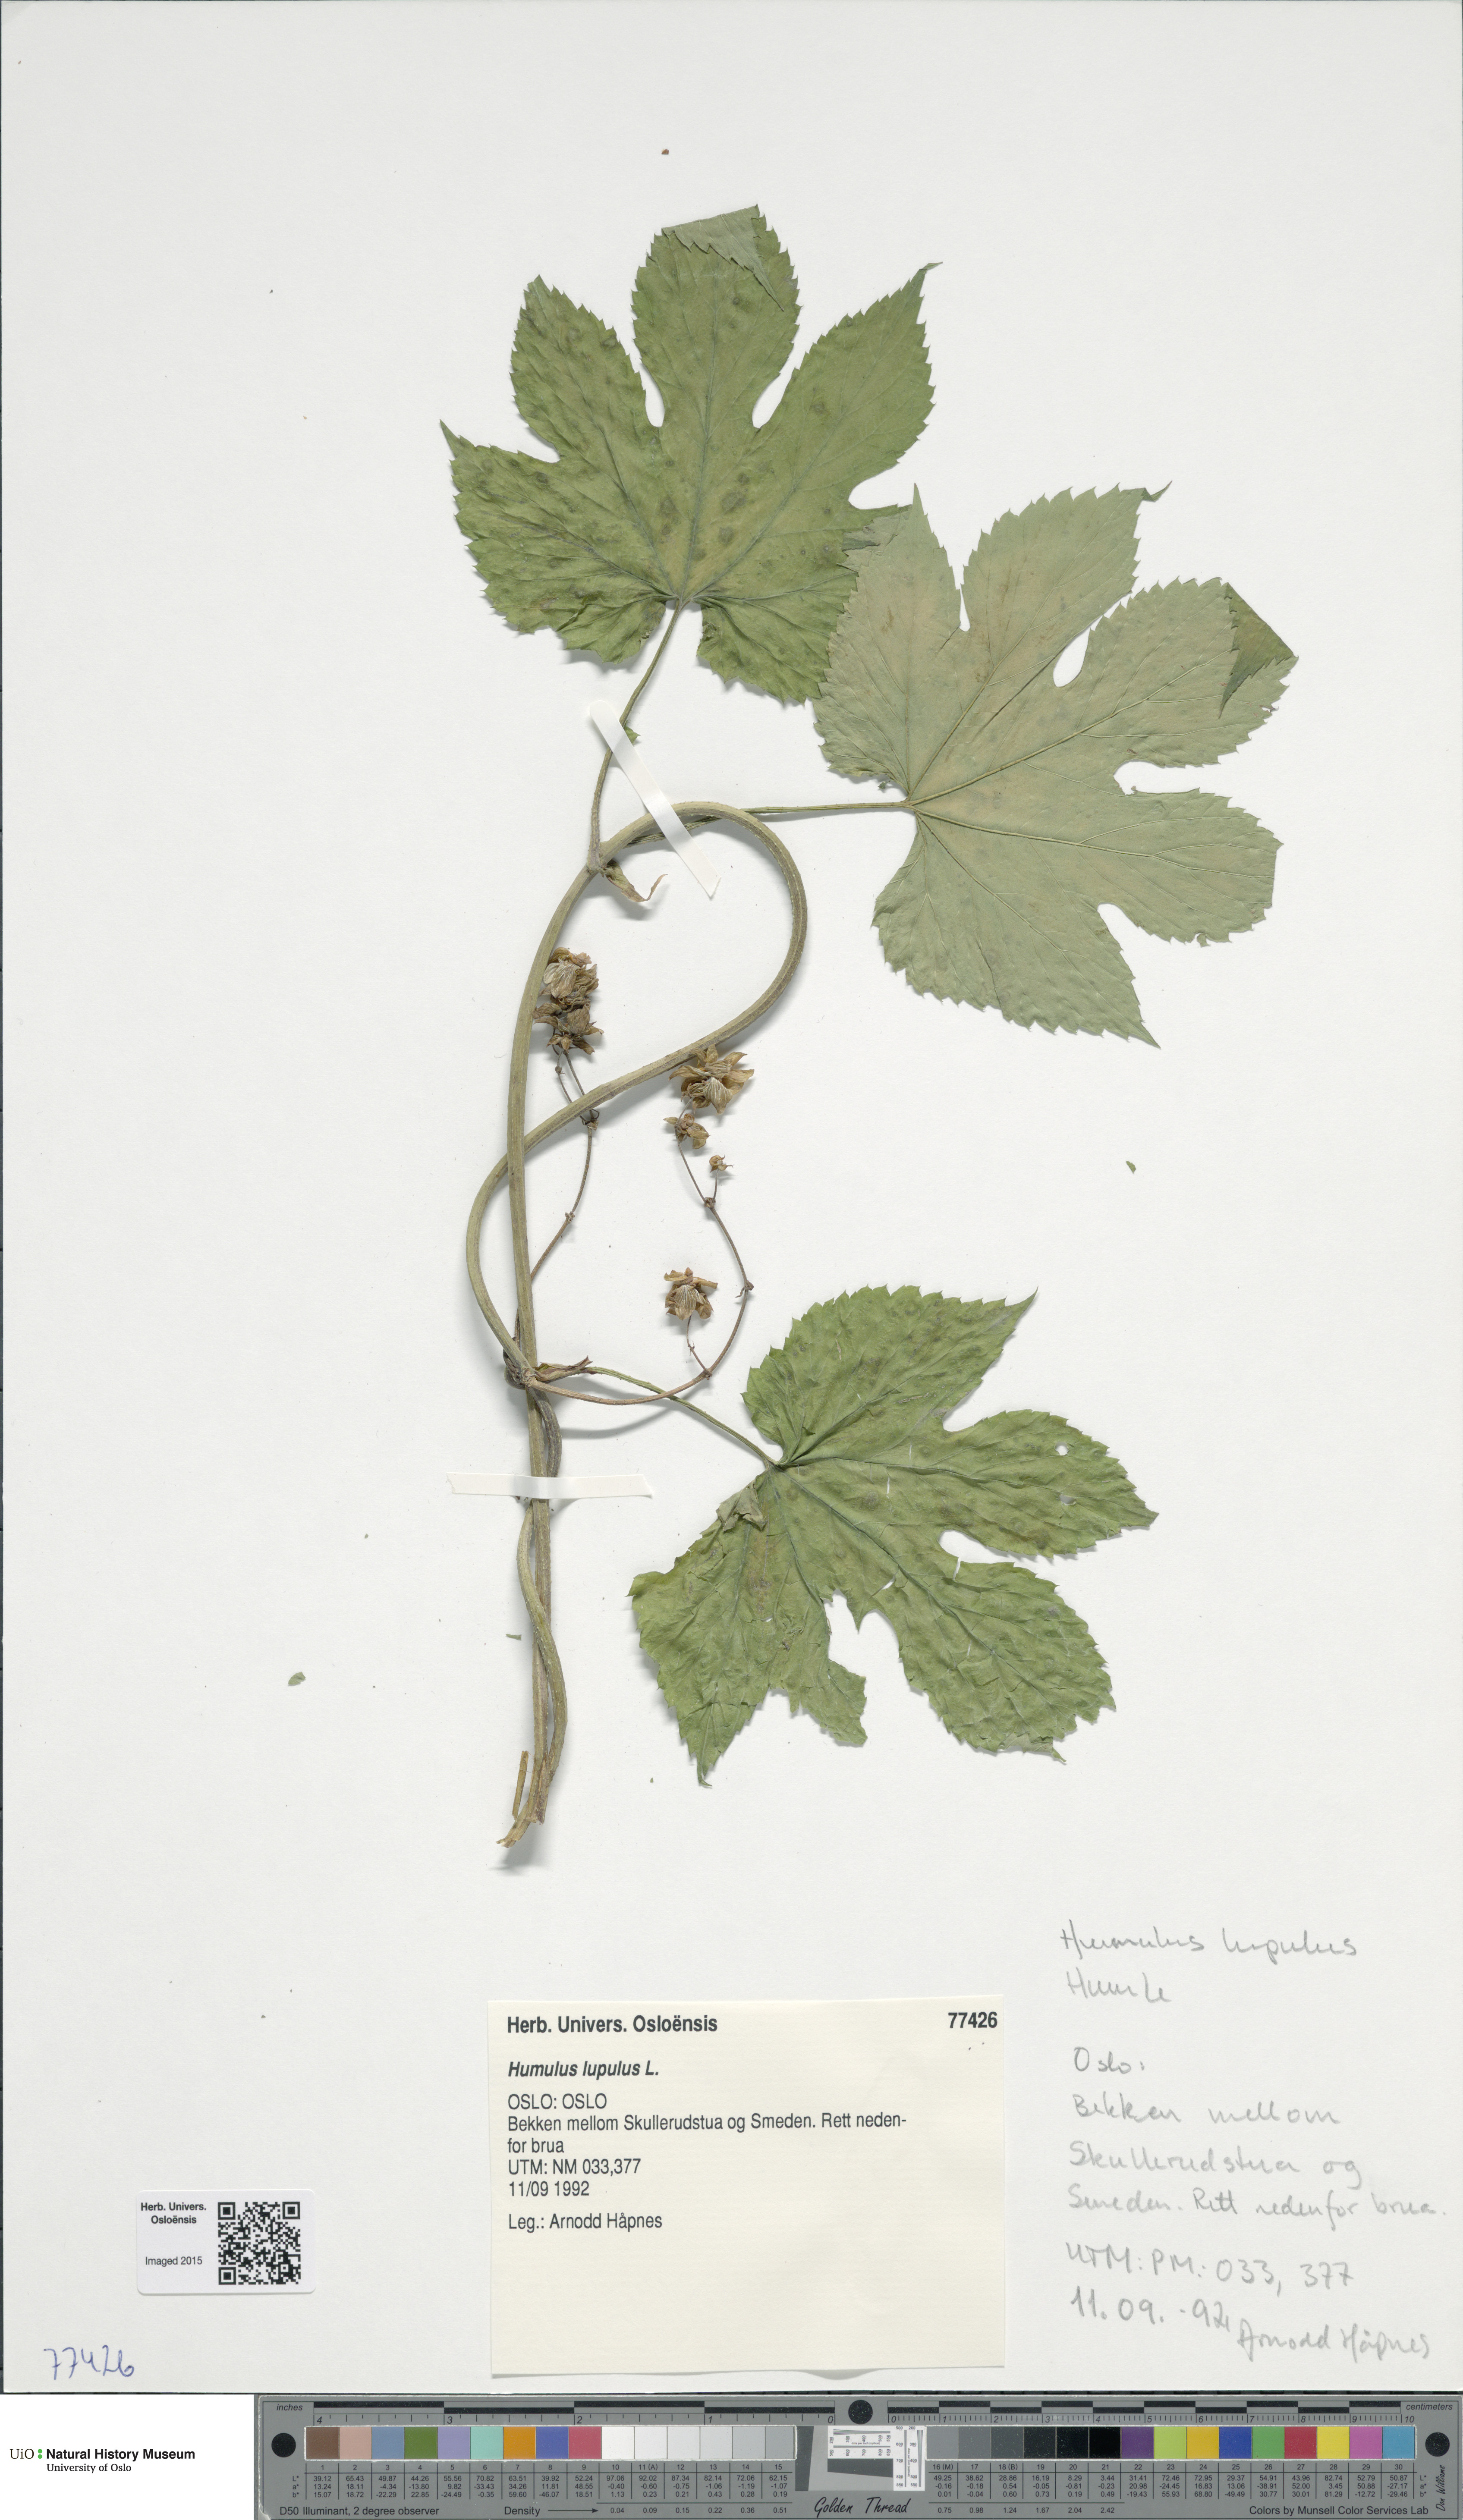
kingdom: Plantae
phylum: Tracheophyta
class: Magnoliopsida
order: Rosales
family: Cannabaceae
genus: Humulus
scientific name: Humulus lupulus
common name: Hop
